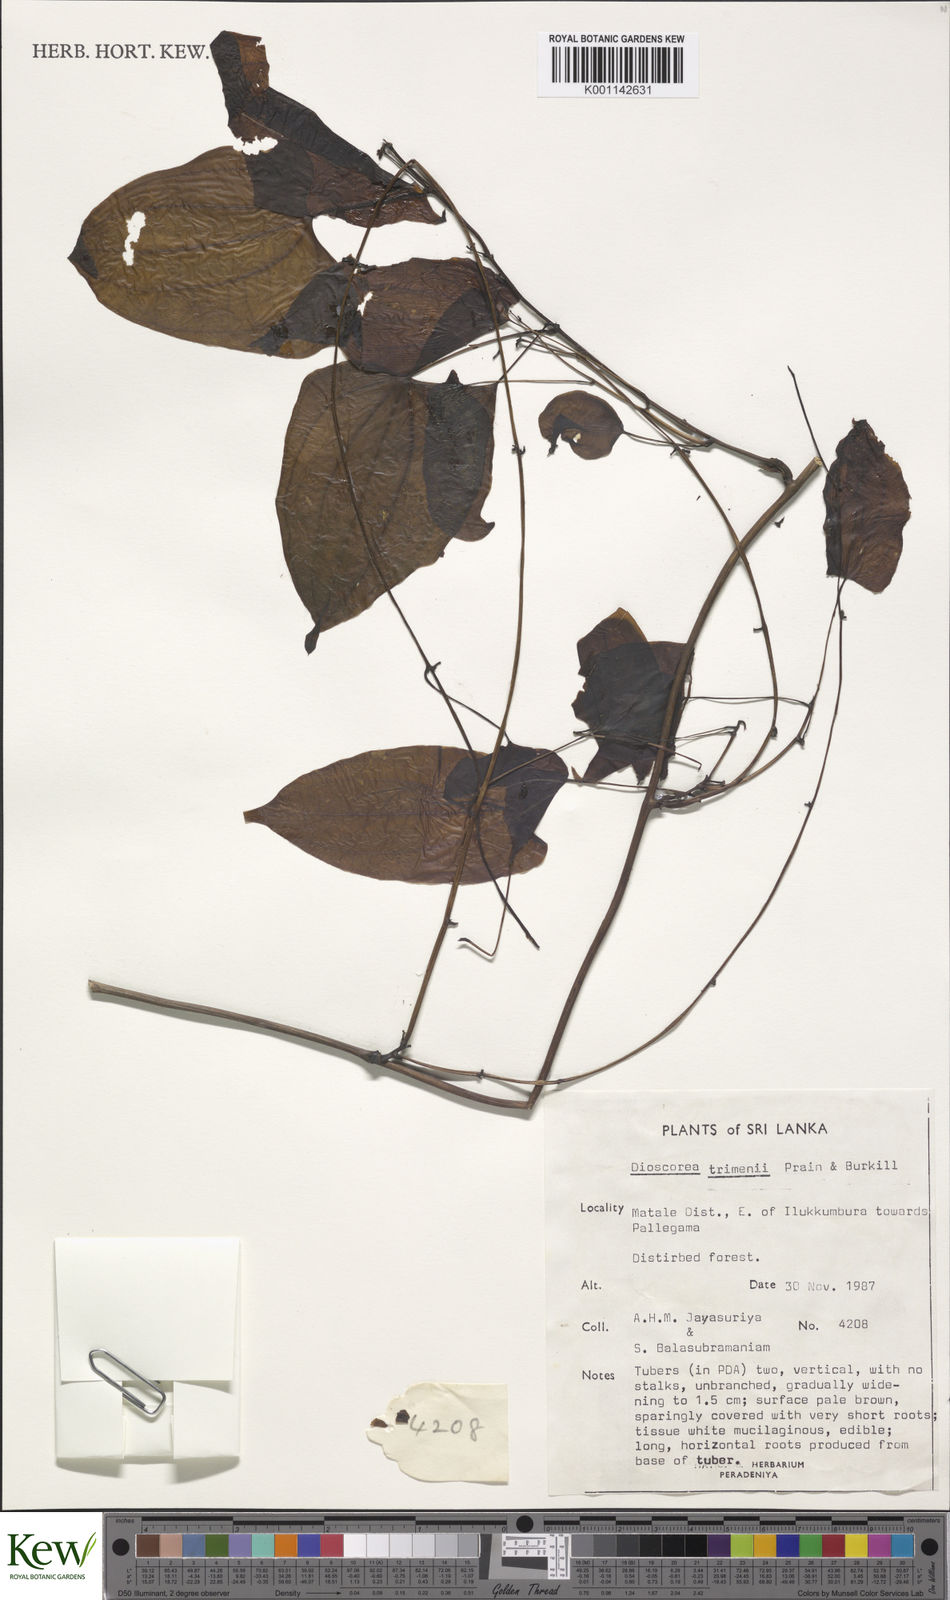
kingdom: Plantae
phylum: Tracheophyta
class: Liliopsida
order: Dioscoreales
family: Dioscoreaceae
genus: Dioscorea
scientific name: Dioscorea trimenii
